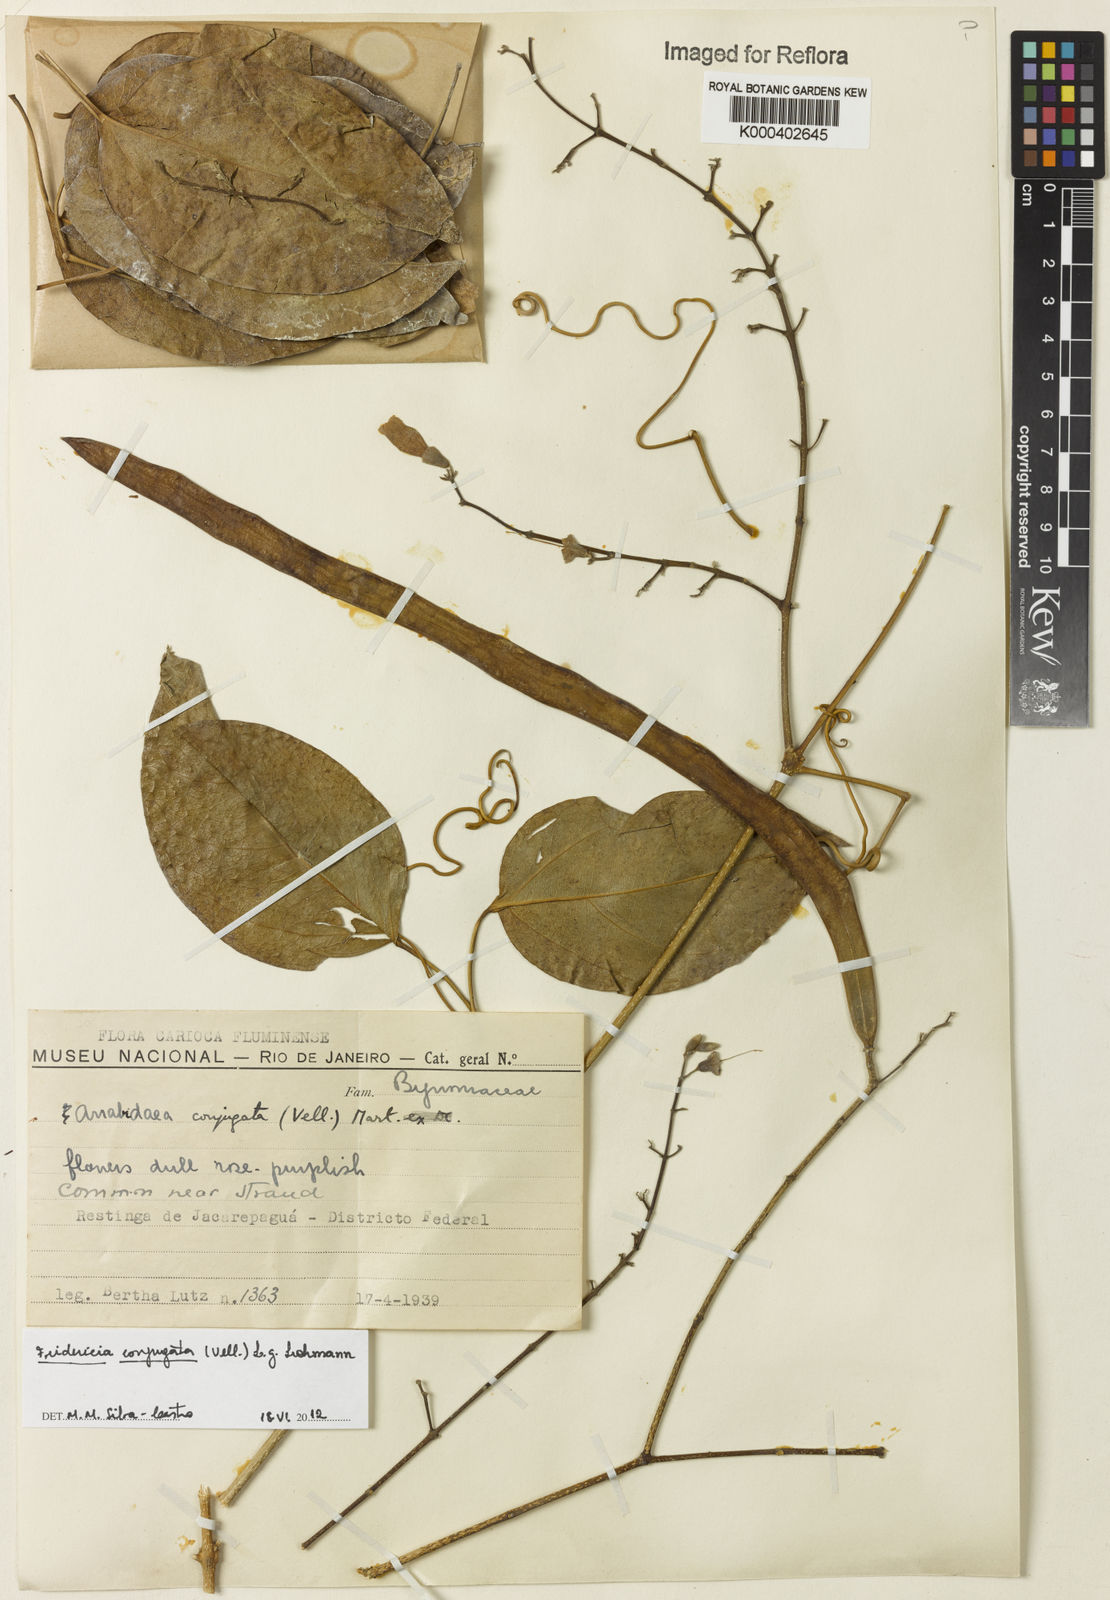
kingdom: Plantae
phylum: Tracheophyta
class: Magnoliopsida
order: Lamiales
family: Bignoniaceae
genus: Fridericia
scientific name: Fridericia conjugata
